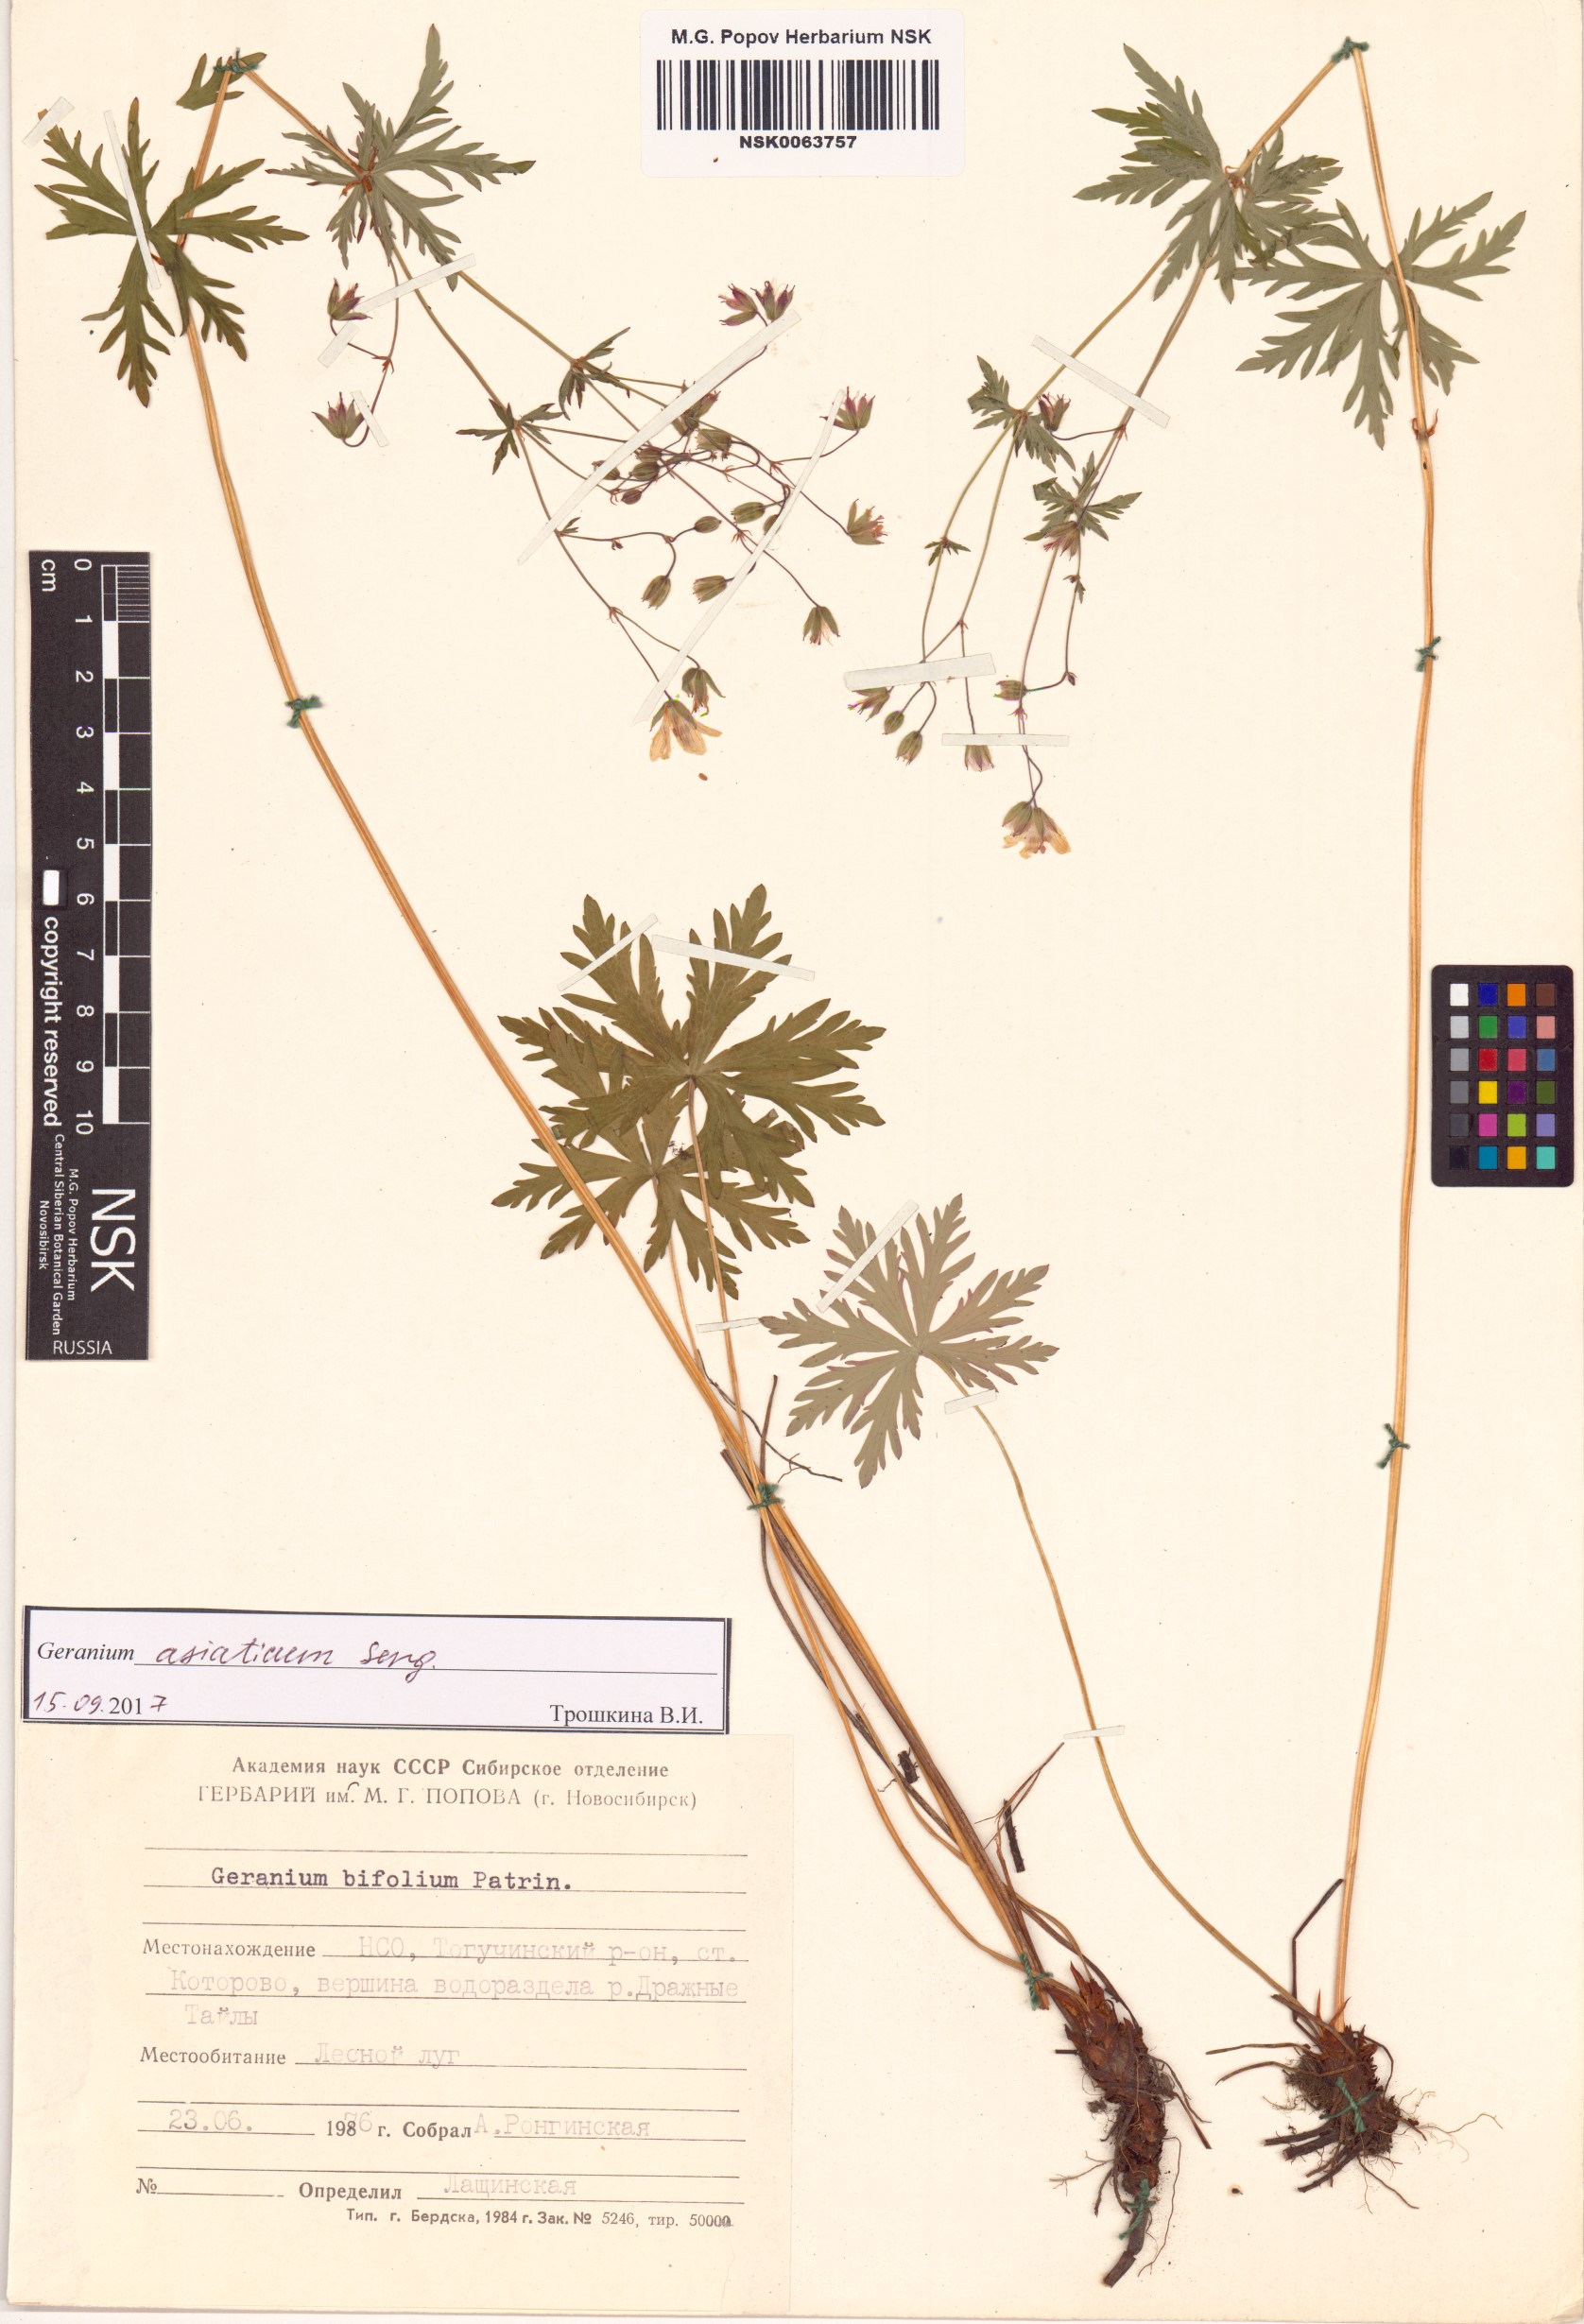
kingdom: Plantae
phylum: Tracheophyta
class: Magnoliopsida
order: Geraniales
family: Geraniaceae
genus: Geranium
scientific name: Geranium pseudosibiricum
